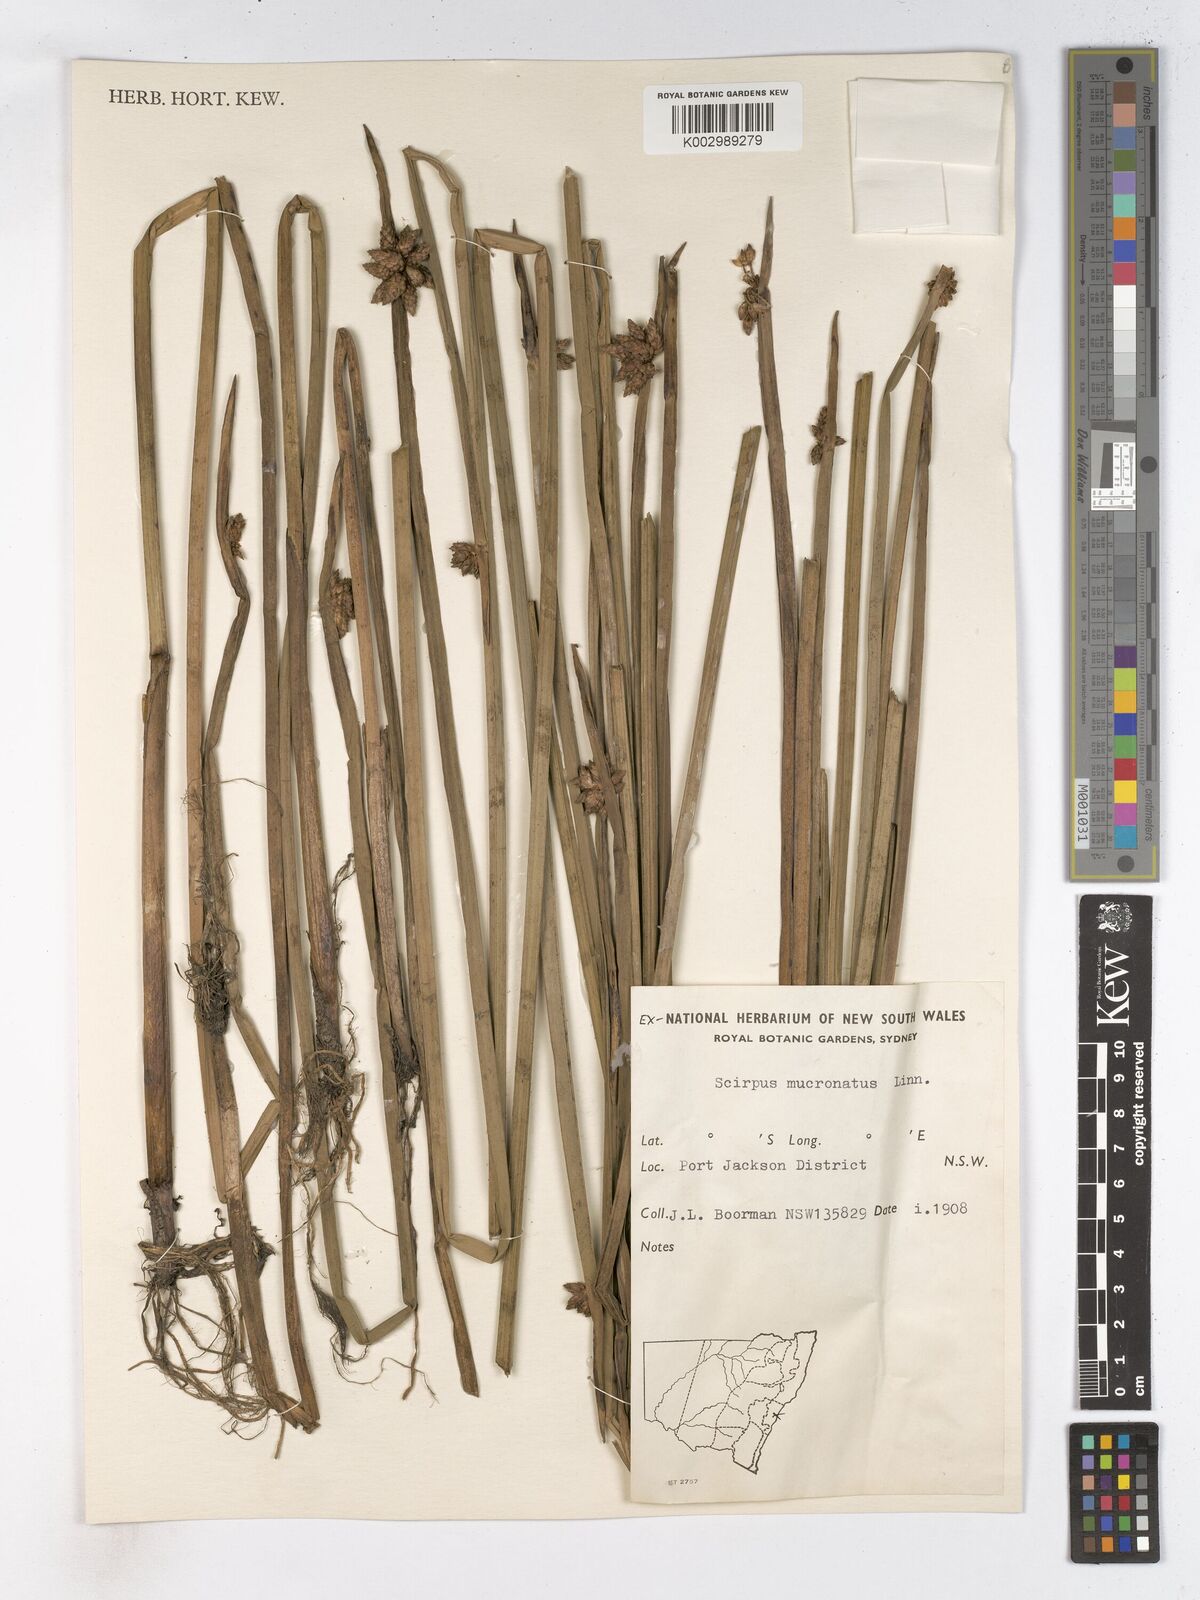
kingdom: Plantae
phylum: Tracheophyta
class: Liliopsida
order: Poales
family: Cyperaceae
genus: Schoenoplectiella
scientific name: Schoenoplectiella mucronata
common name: Bog bulrush
